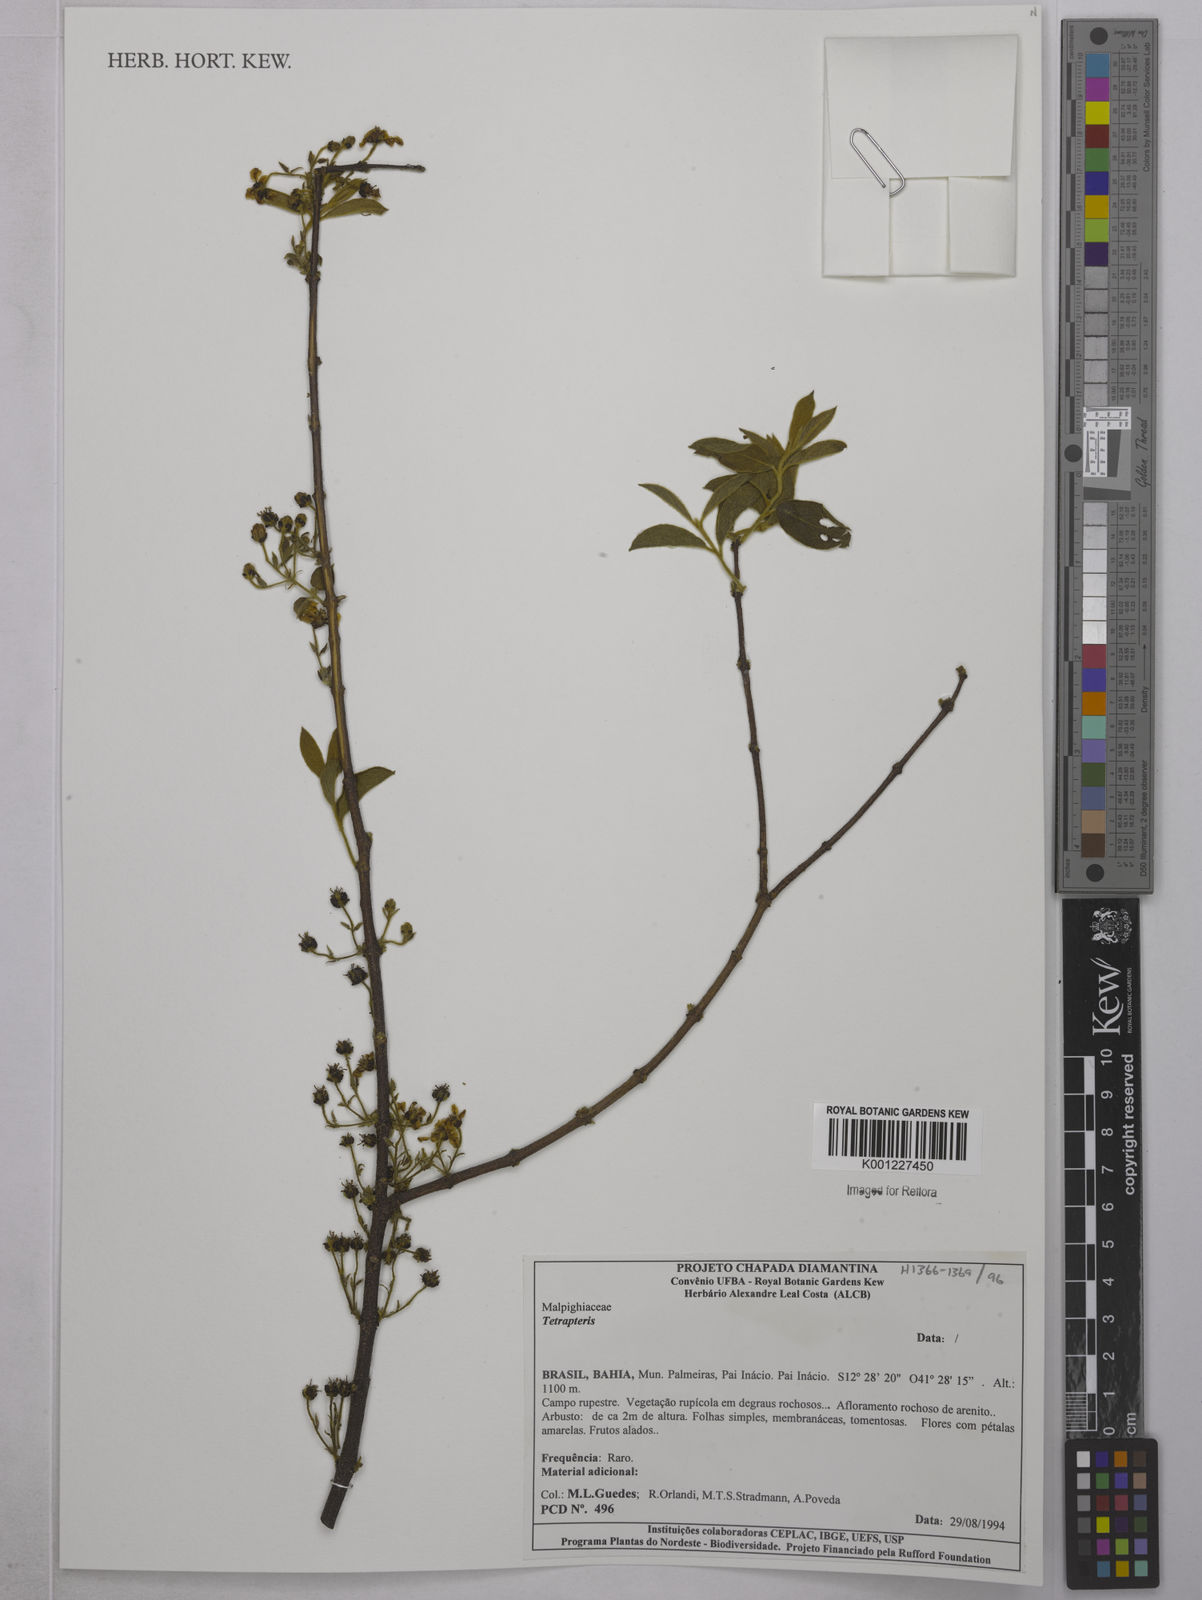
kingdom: Plantae
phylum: Tracheophyta
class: Magnoliopsida
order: Malpighiales
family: Malpighiaceae
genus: Tetrapterys
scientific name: Tetrapterys
